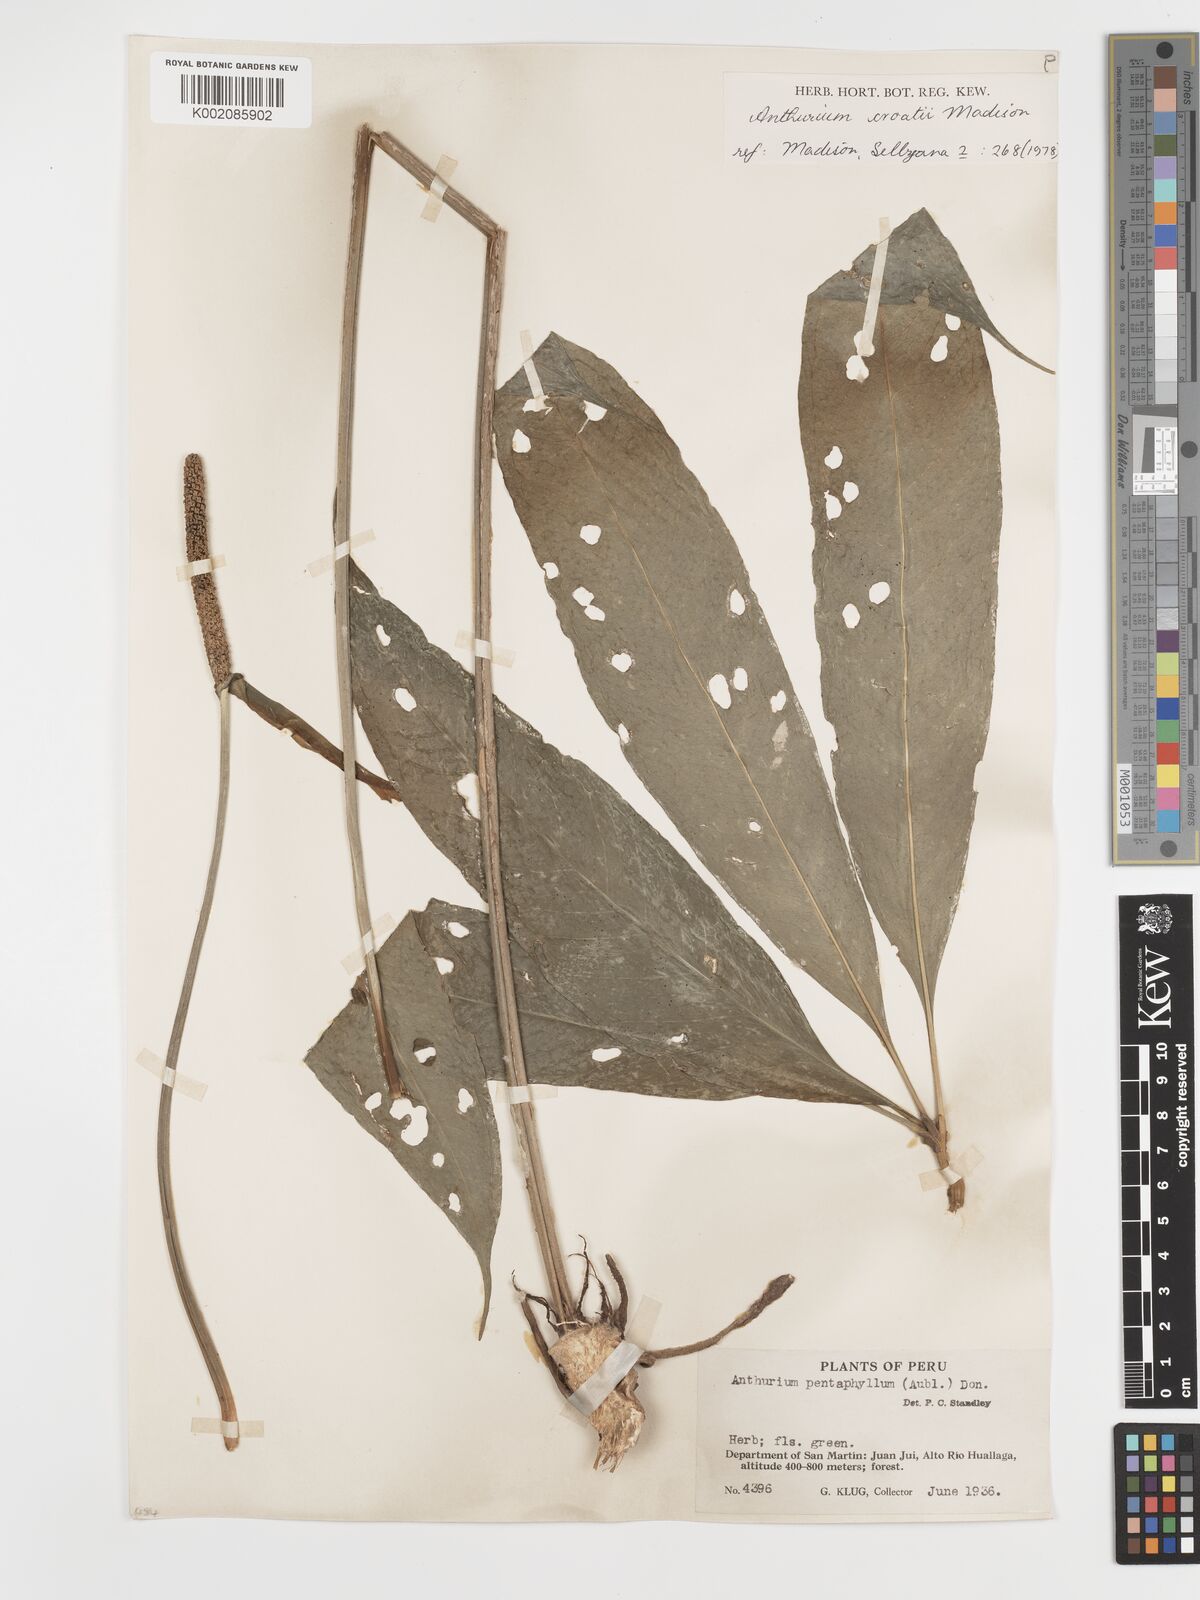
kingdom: Plantae
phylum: Tracheophyta
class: Liliopsida
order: Alismatales
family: Araceae
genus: Anthurium
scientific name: Anthurium croatii
